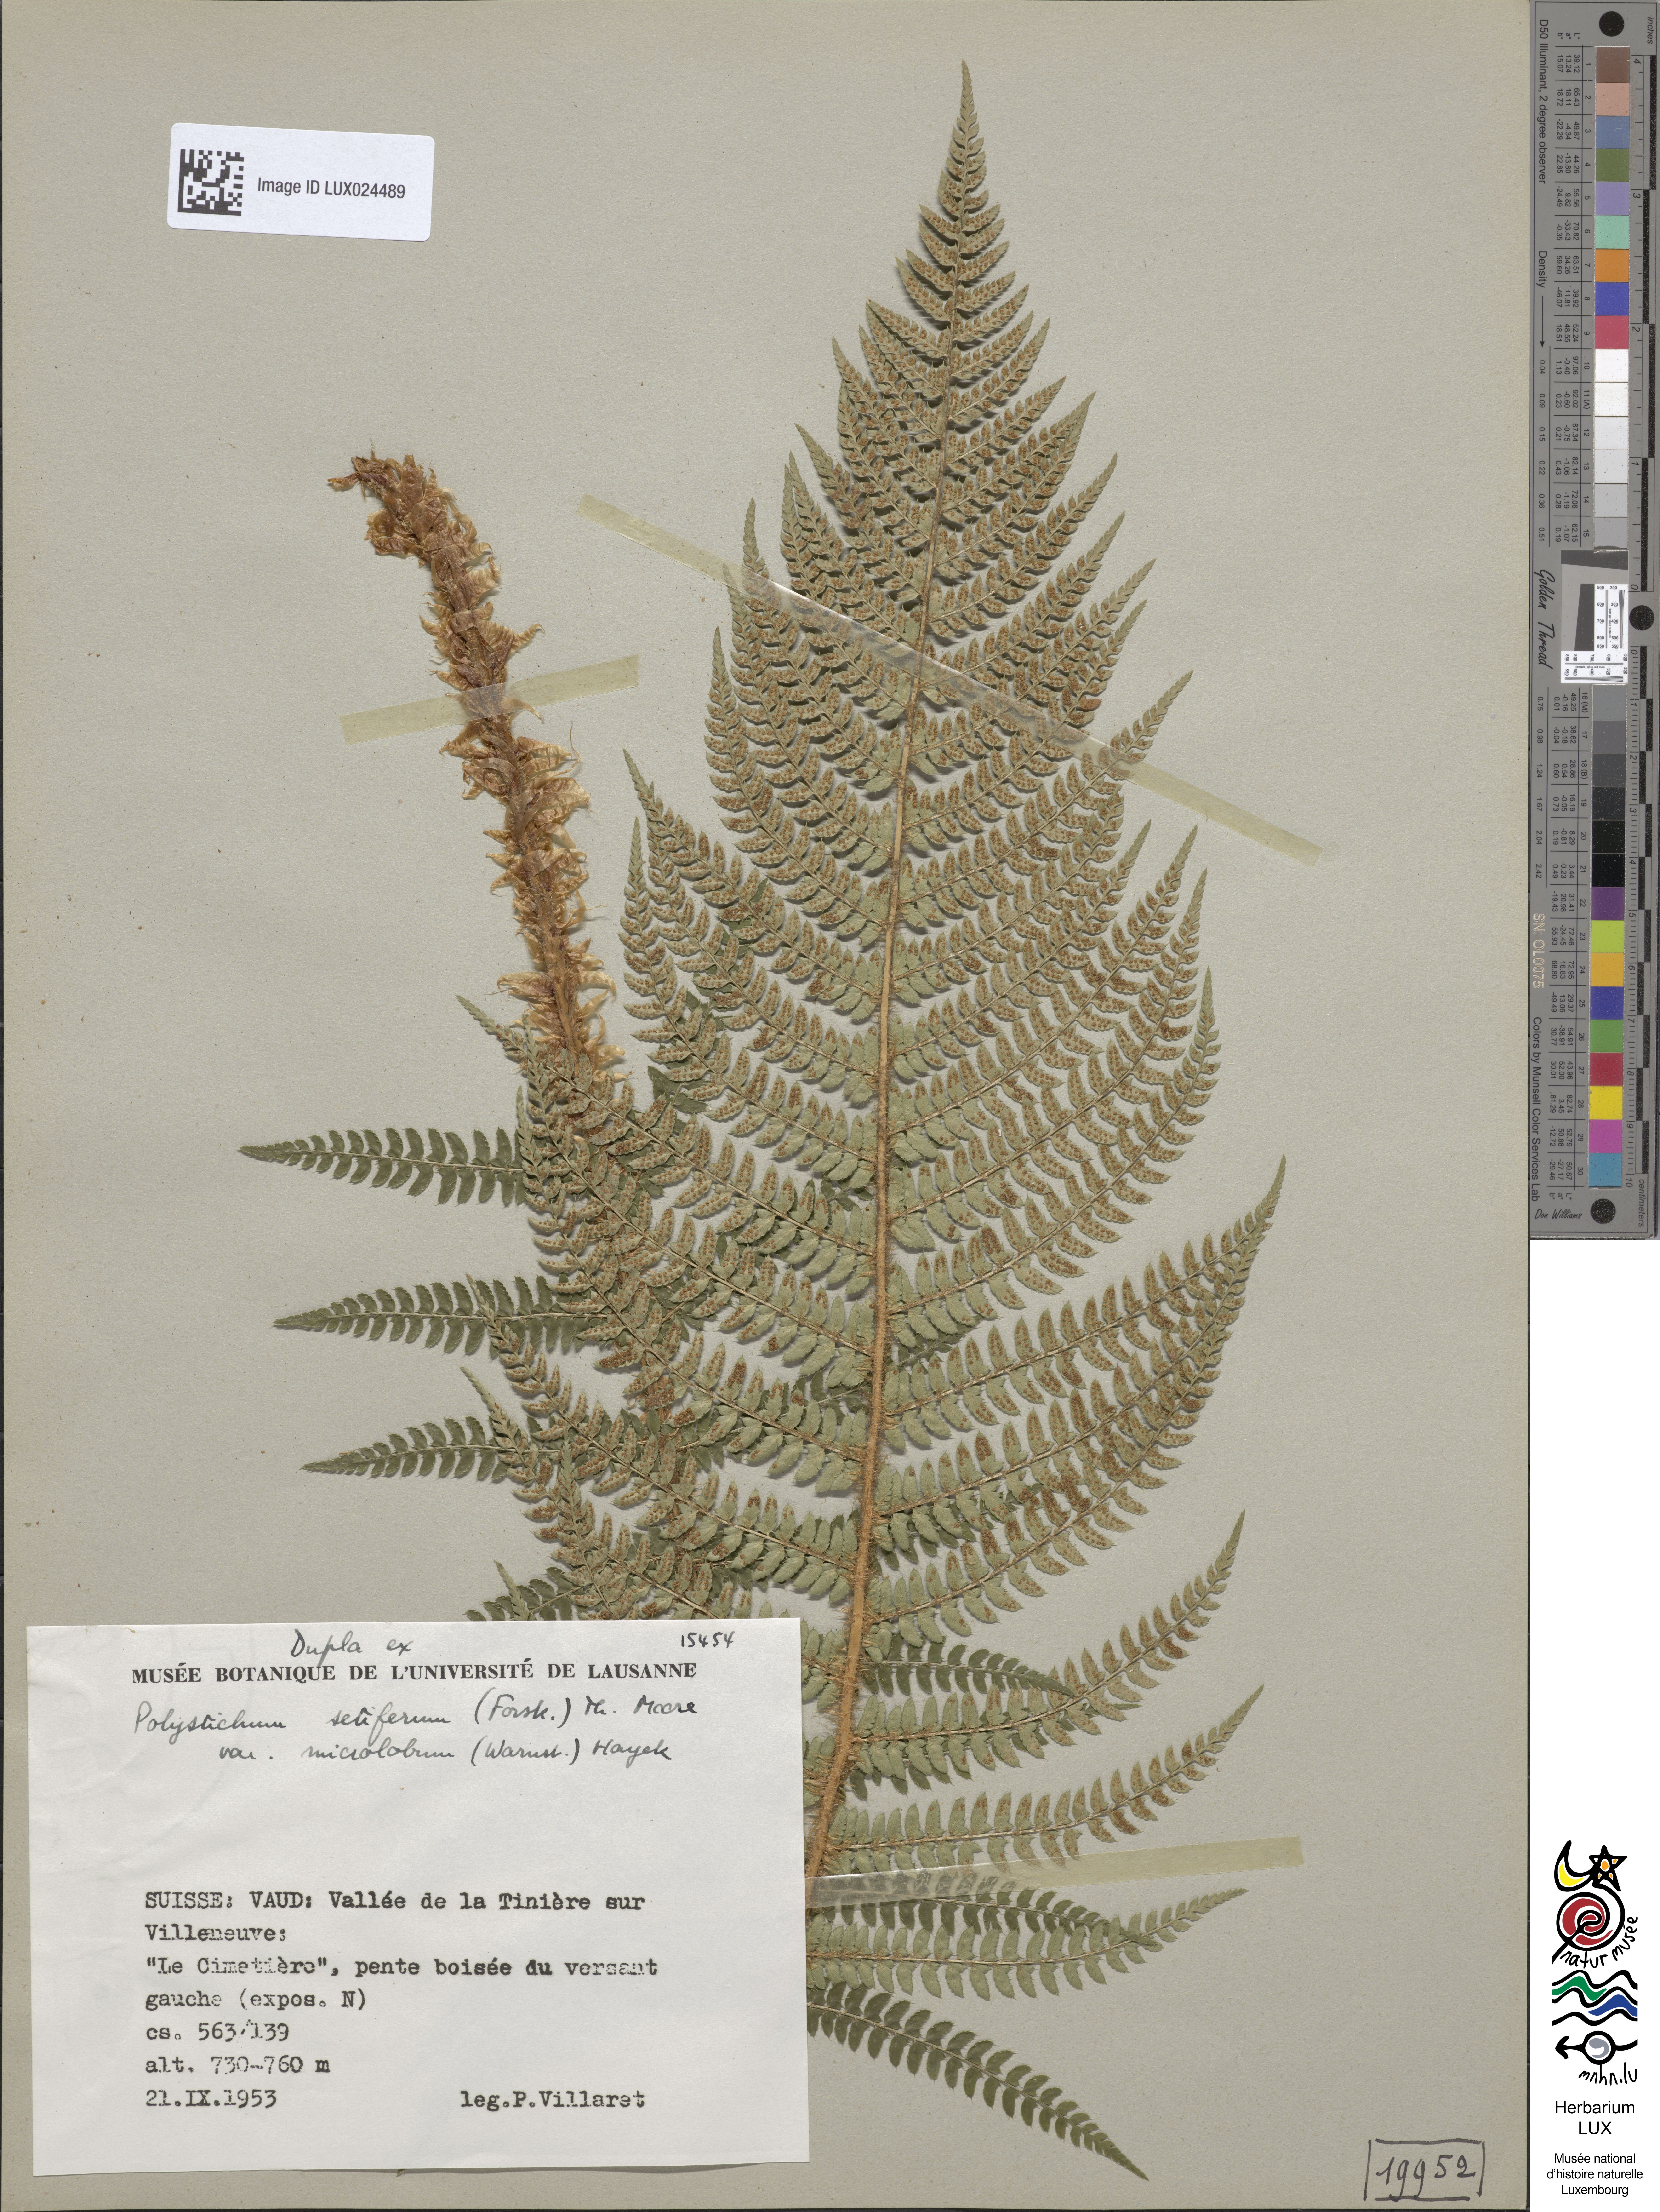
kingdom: Plantae
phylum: Tracheophyta
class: Polypodiopsida
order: Polypodiales
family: Dryopteridaceae
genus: Polystichum
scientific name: Polystichum setiferum
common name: Soft shield-fern
